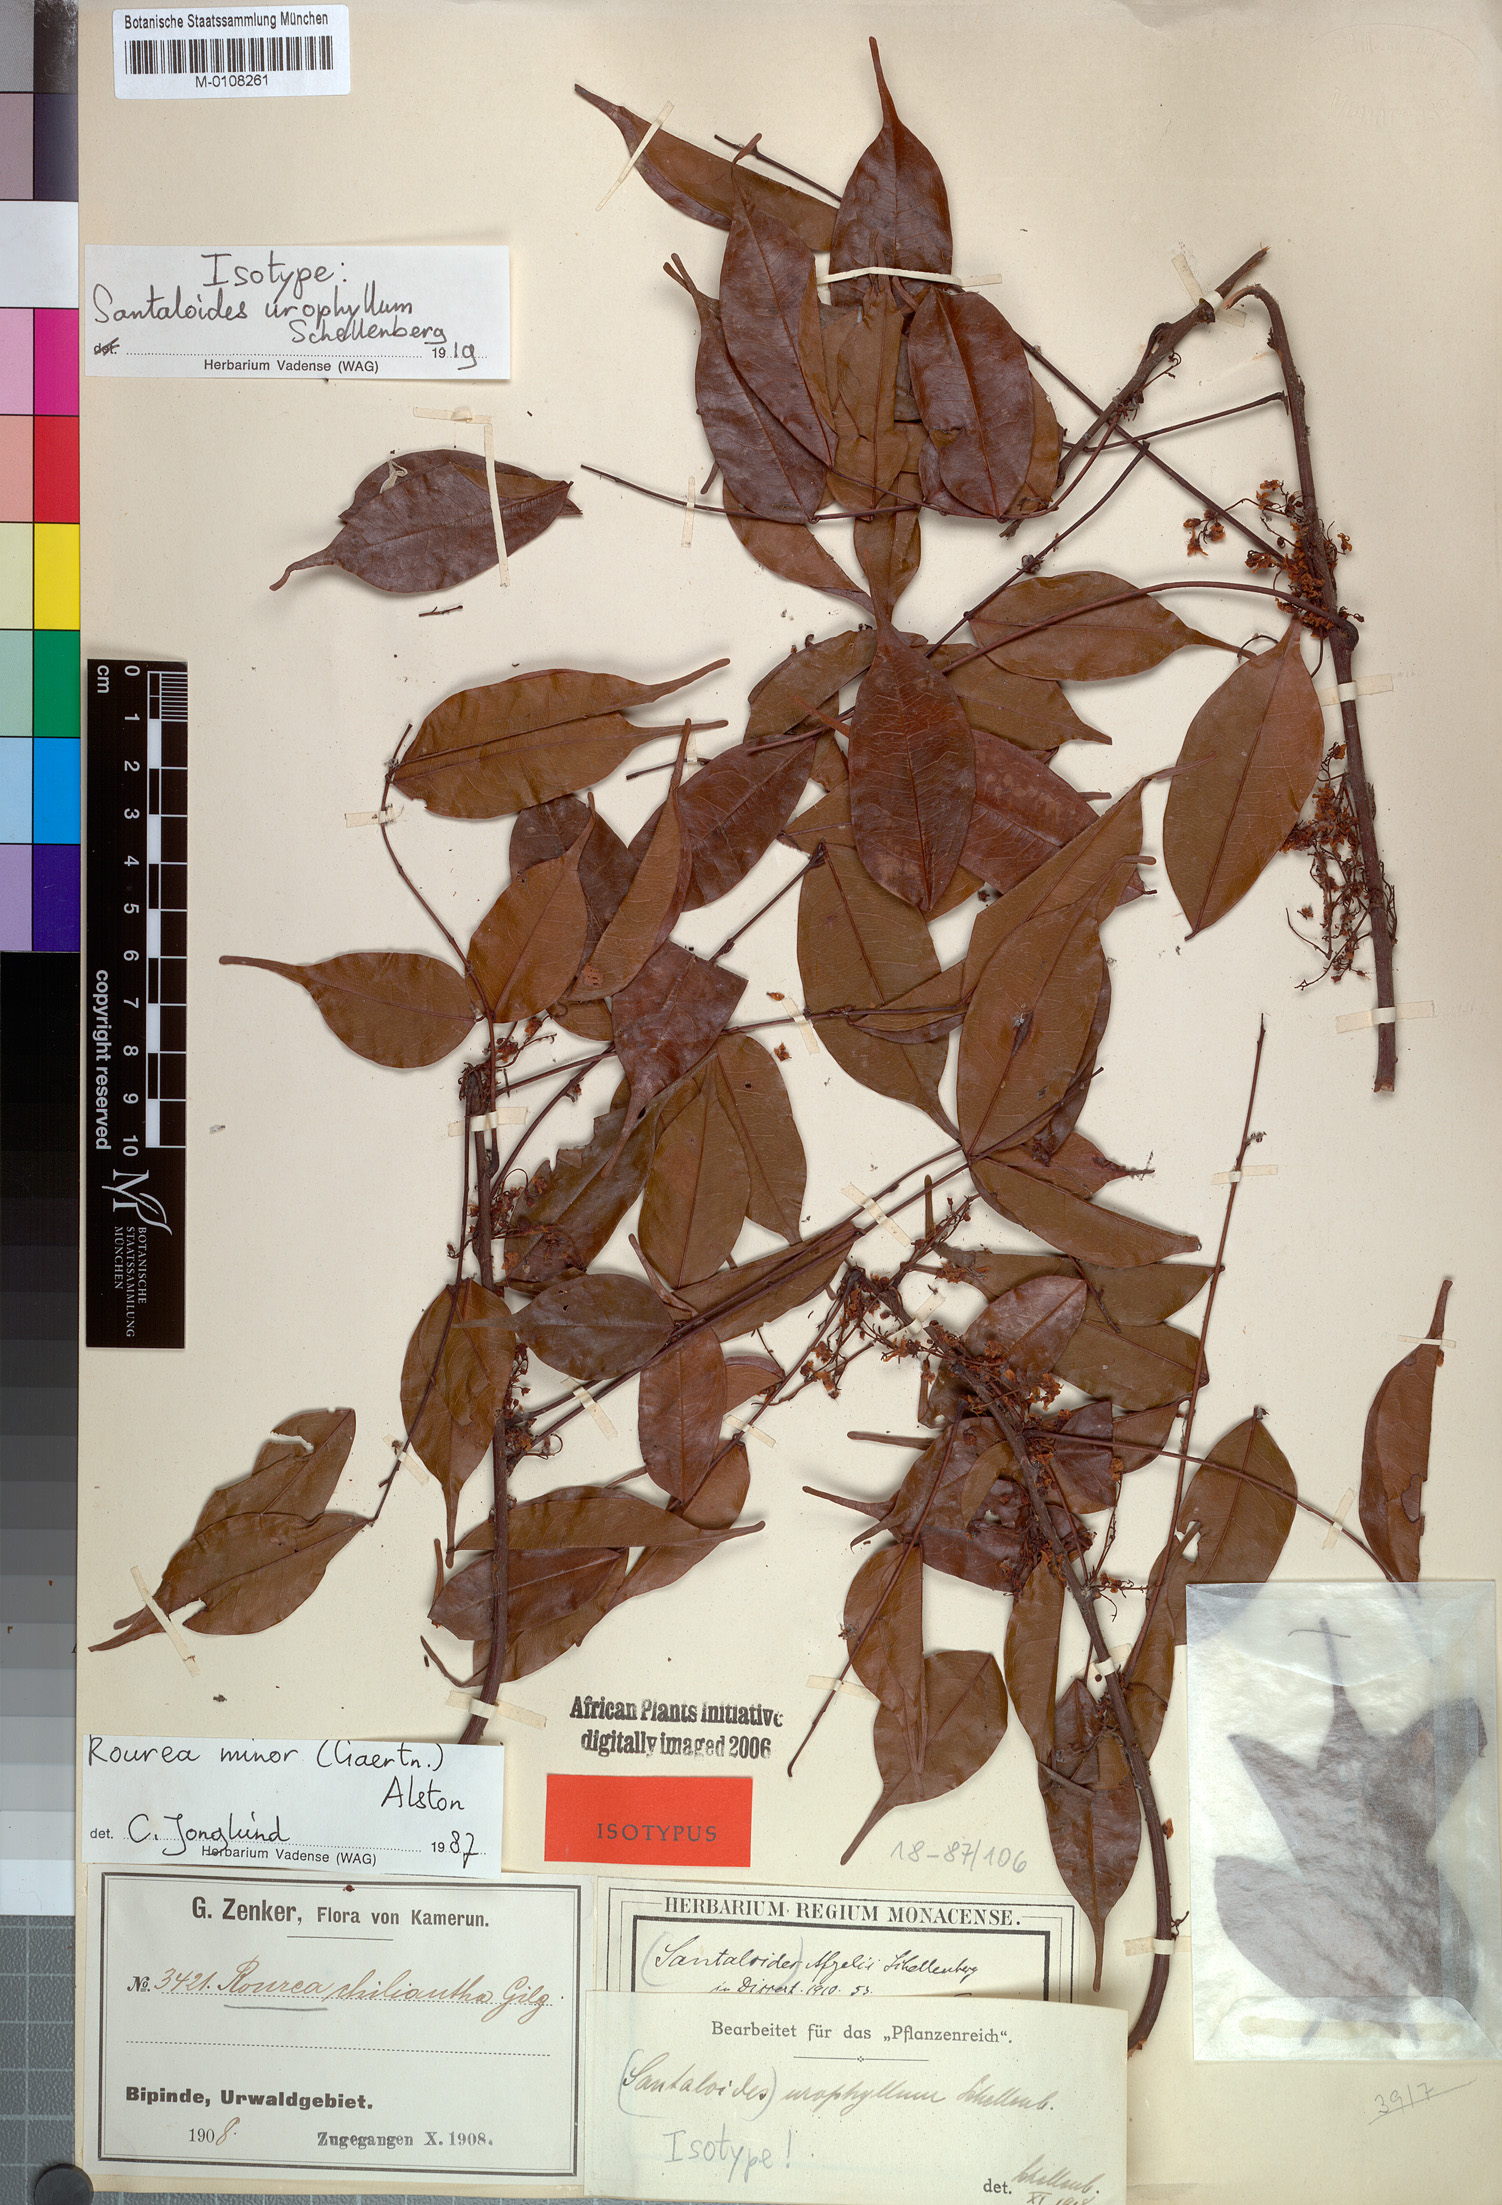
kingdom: Plantae
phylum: Tracheophyta
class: Magnoliopsida
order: Oxalidales
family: Connaraceae
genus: Rourea
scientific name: Rourea minor
